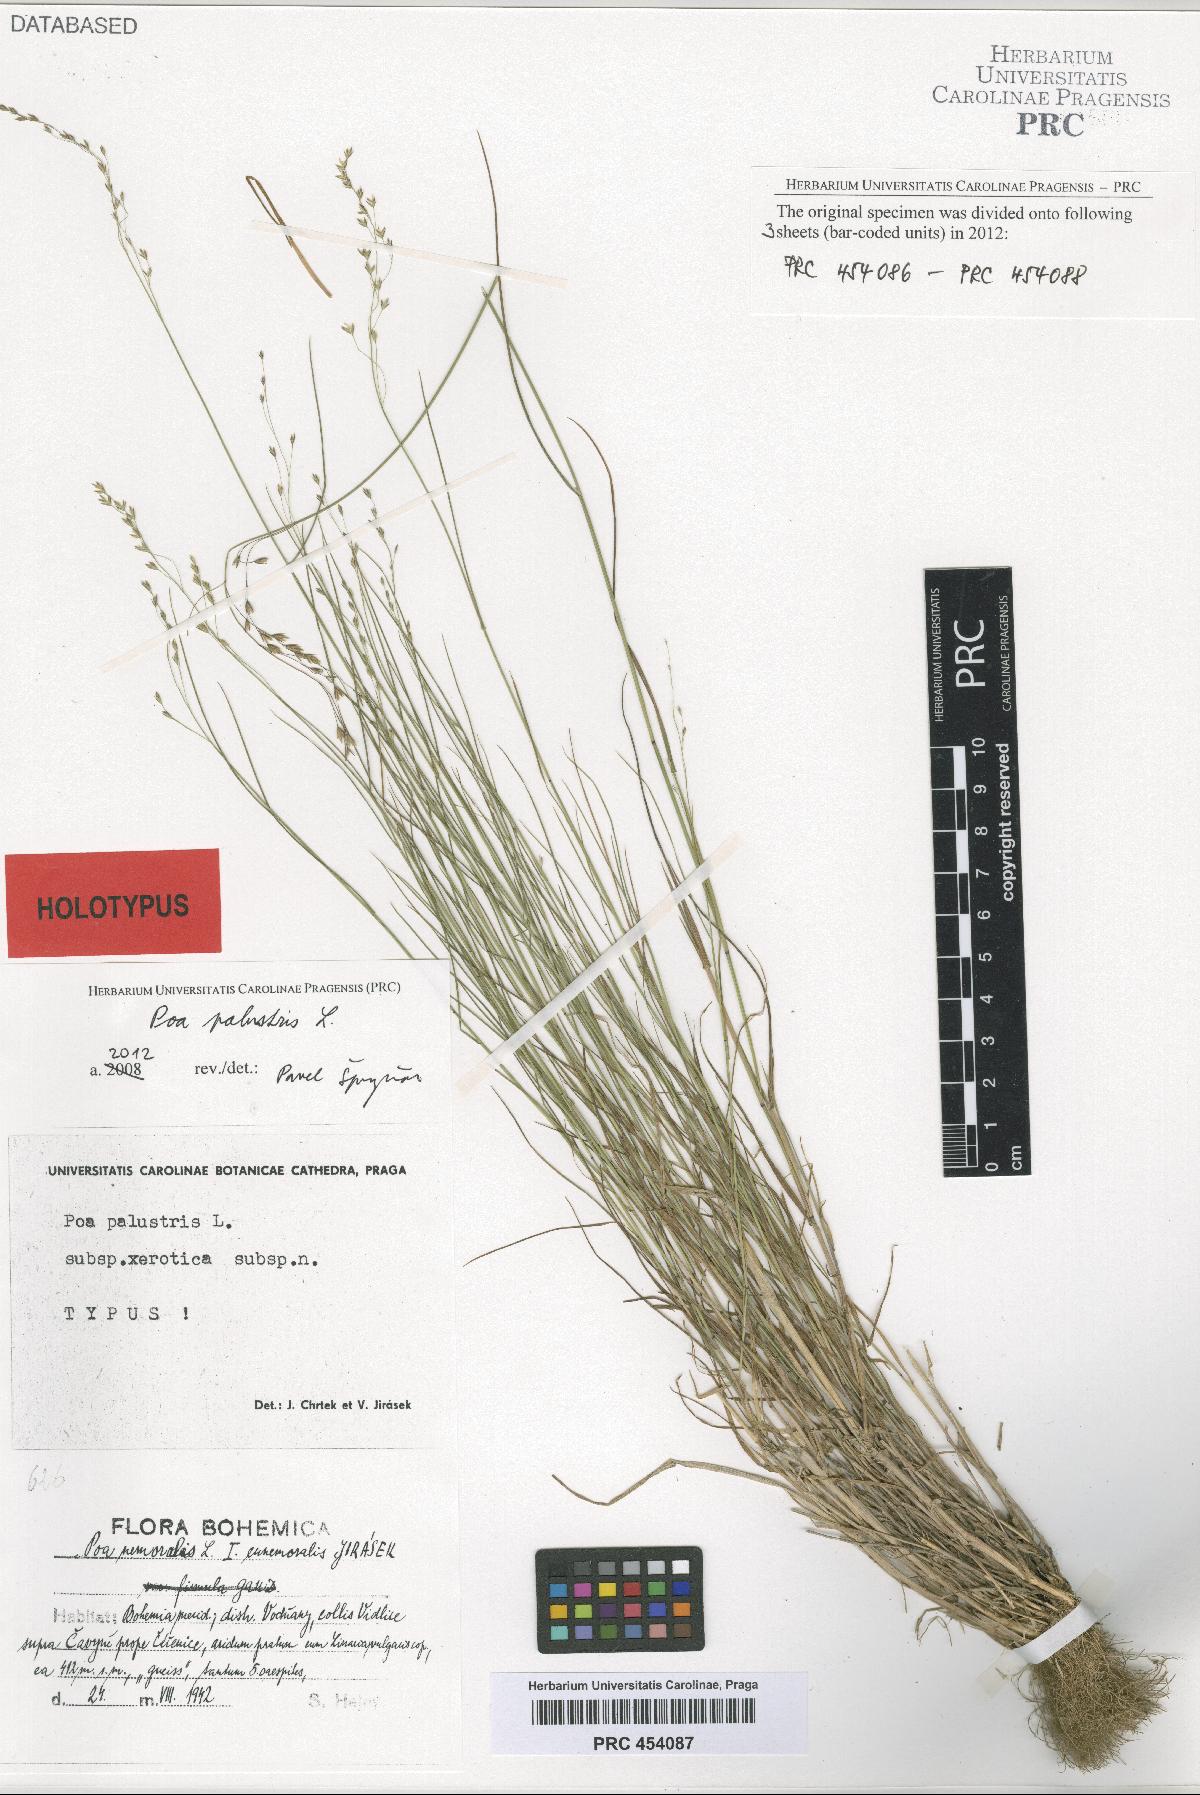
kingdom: Plantae
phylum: Tracheophyta
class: Liliopsida
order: Poales
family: Poaceae
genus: Poa
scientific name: Poa palustris
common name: Swamp meadow-grass
